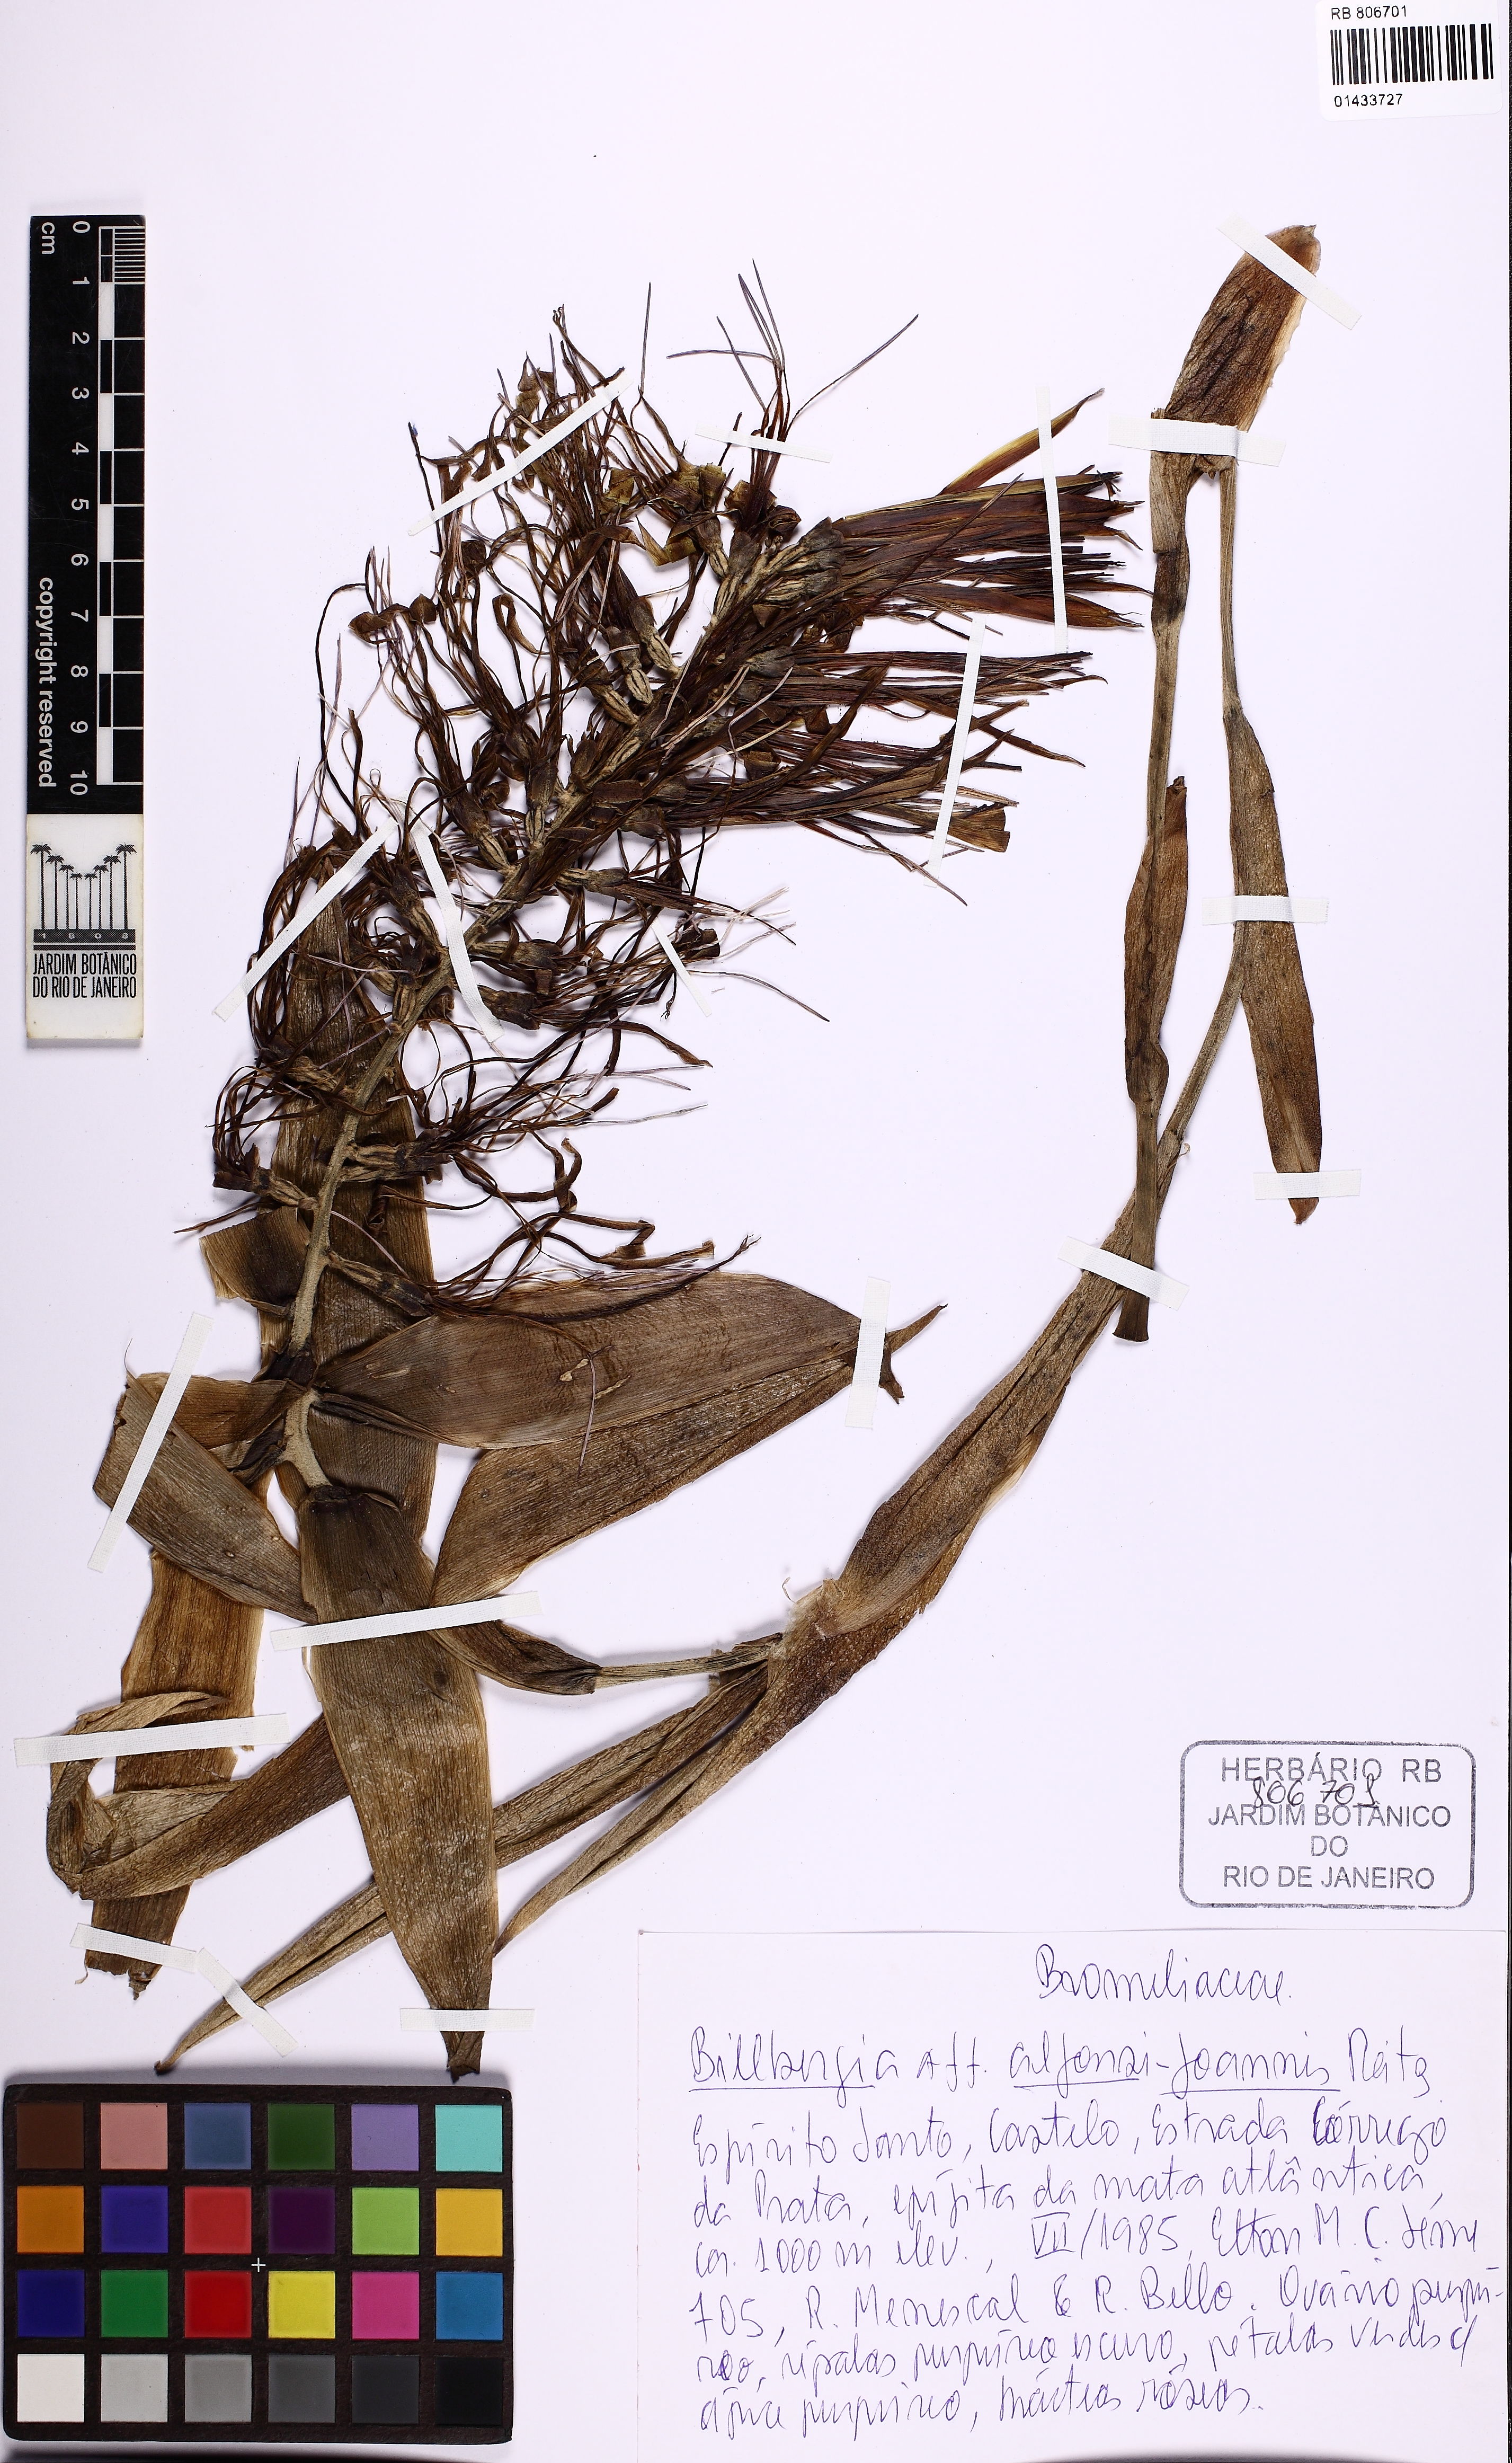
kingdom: Plantae
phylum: Tracheophyta
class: Liliopsida
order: Poales
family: Bromeliaceae
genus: Billbergia
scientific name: Billbergia alfonsi-joannis
